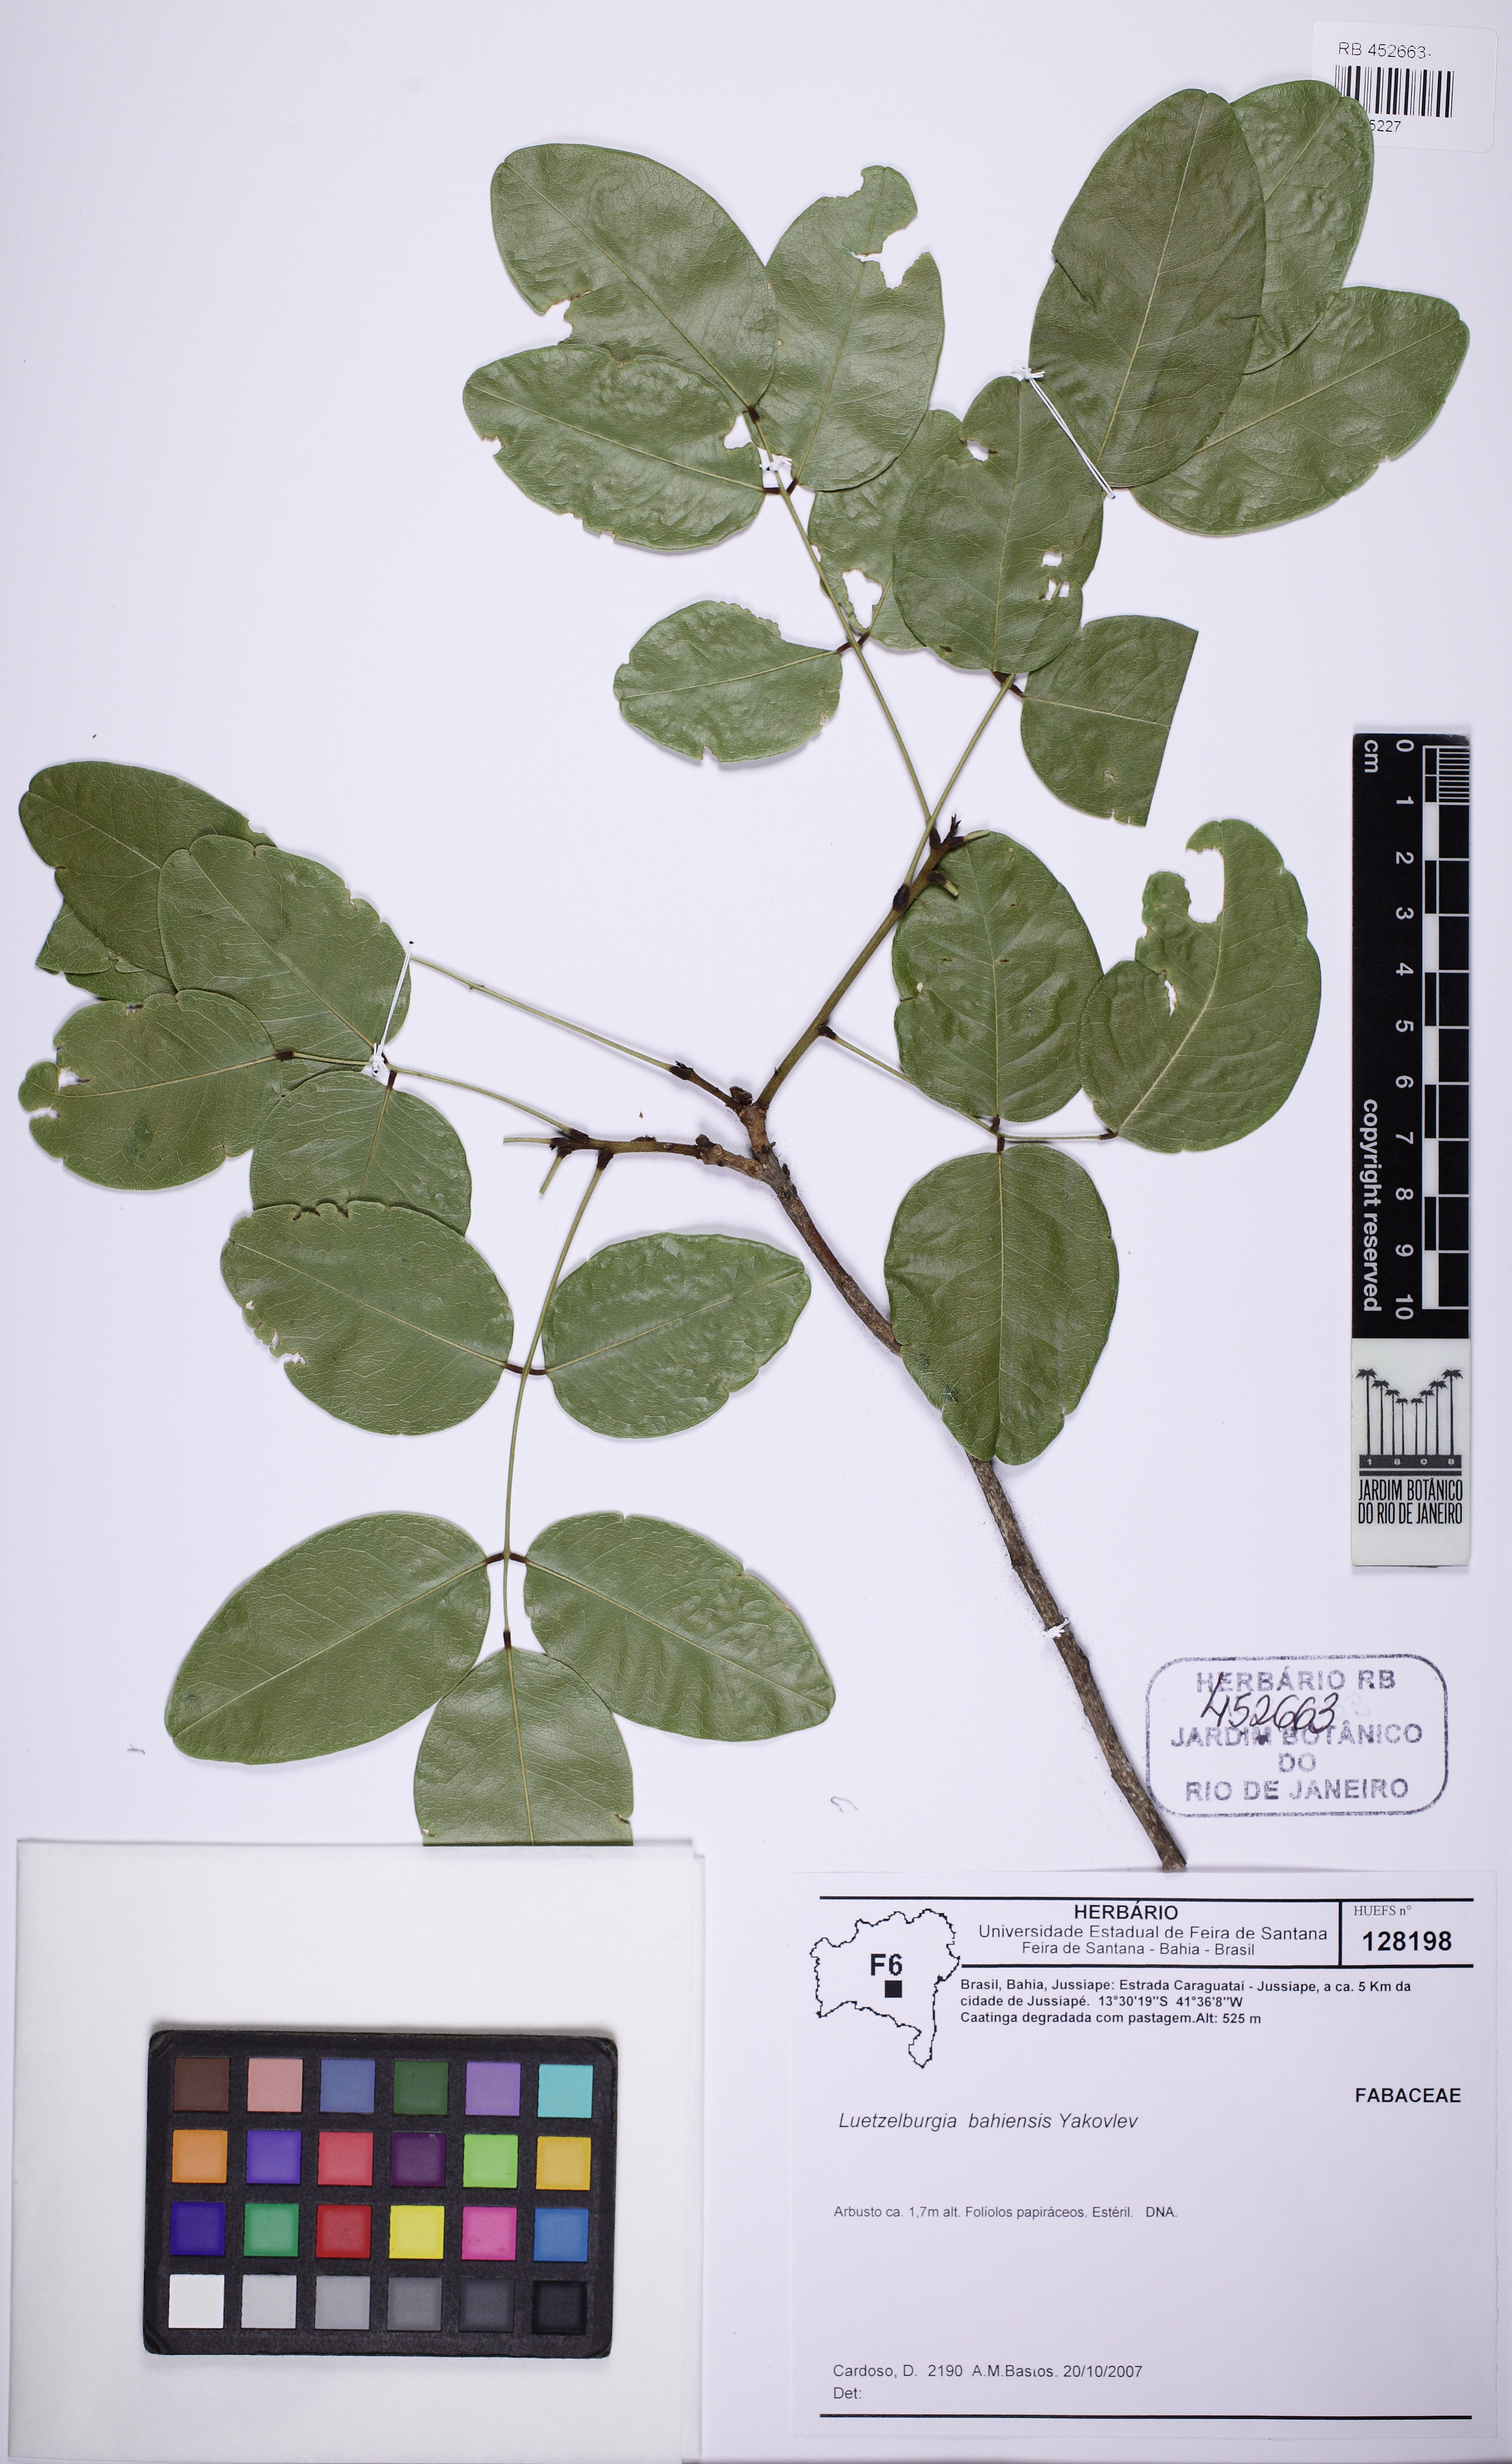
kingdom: Plantae
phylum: Tracheophyta
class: Magnoliopsida
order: Fabales
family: Fabaceae
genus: Luetzelburgia
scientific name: Luetzelburgia bahiensis
